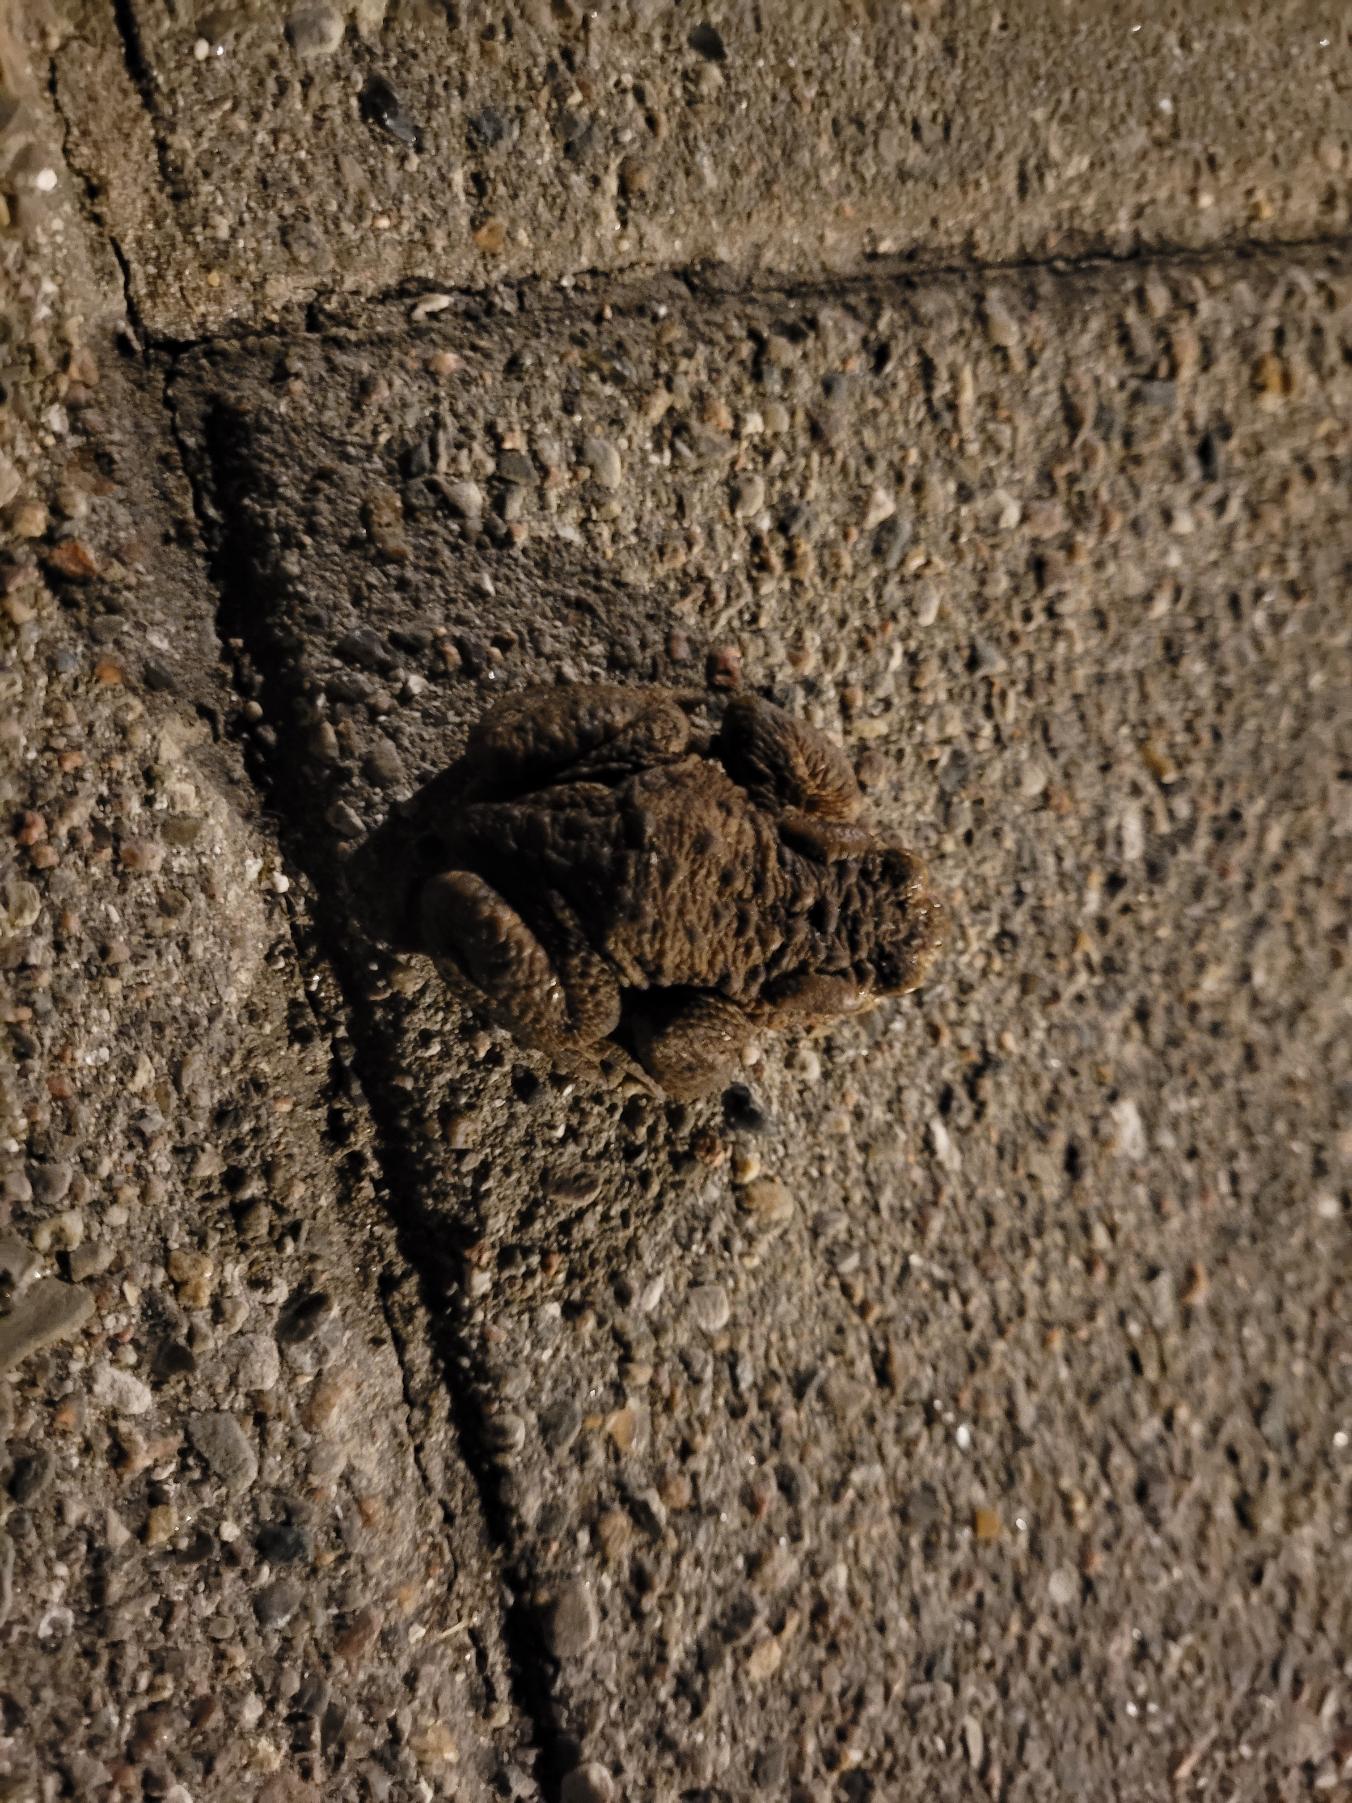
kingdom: Animalia
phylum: Chordata
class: Amphibia
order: Anura
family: Bufonidae
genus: Bufo
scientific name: Bufo bufo
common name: Skrubtudse
